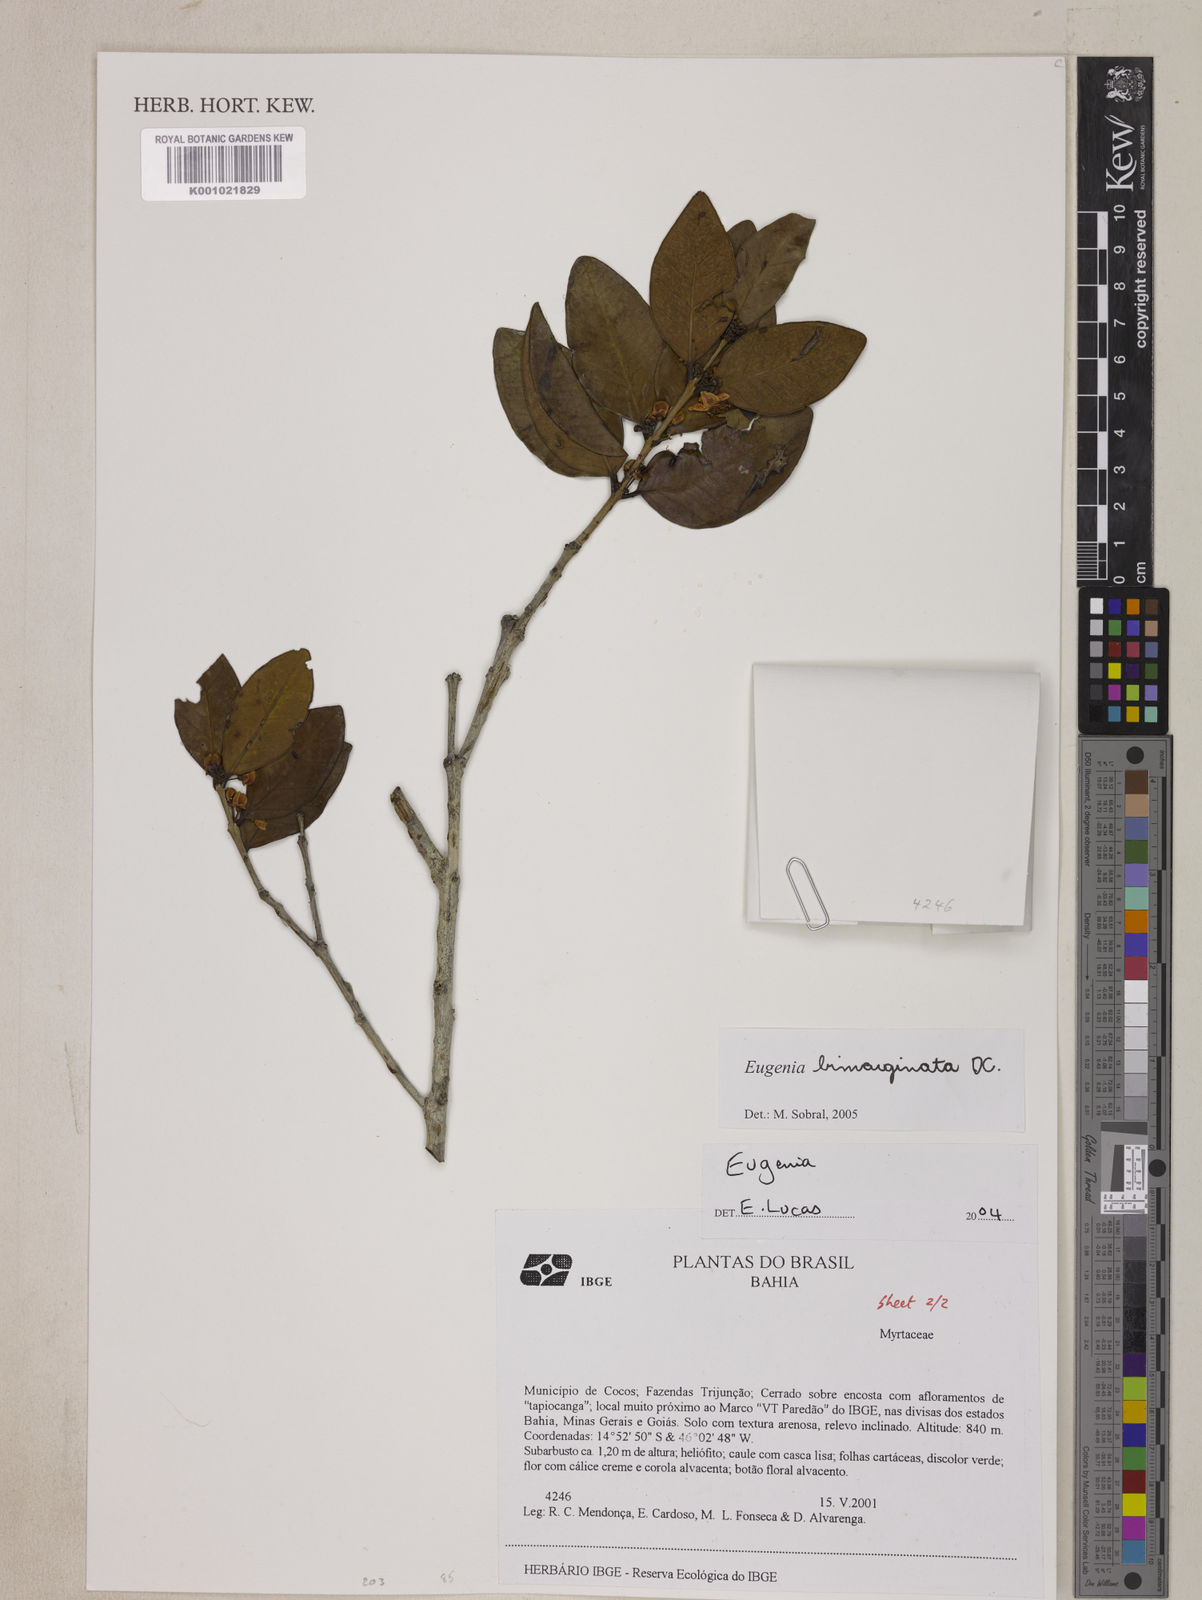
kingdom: Plantae
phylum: Tracheophyta
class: Magnoliopsida
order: Myrtales
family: Myrtaceae
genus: Eugenia
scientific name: Eugenia bimarginata
